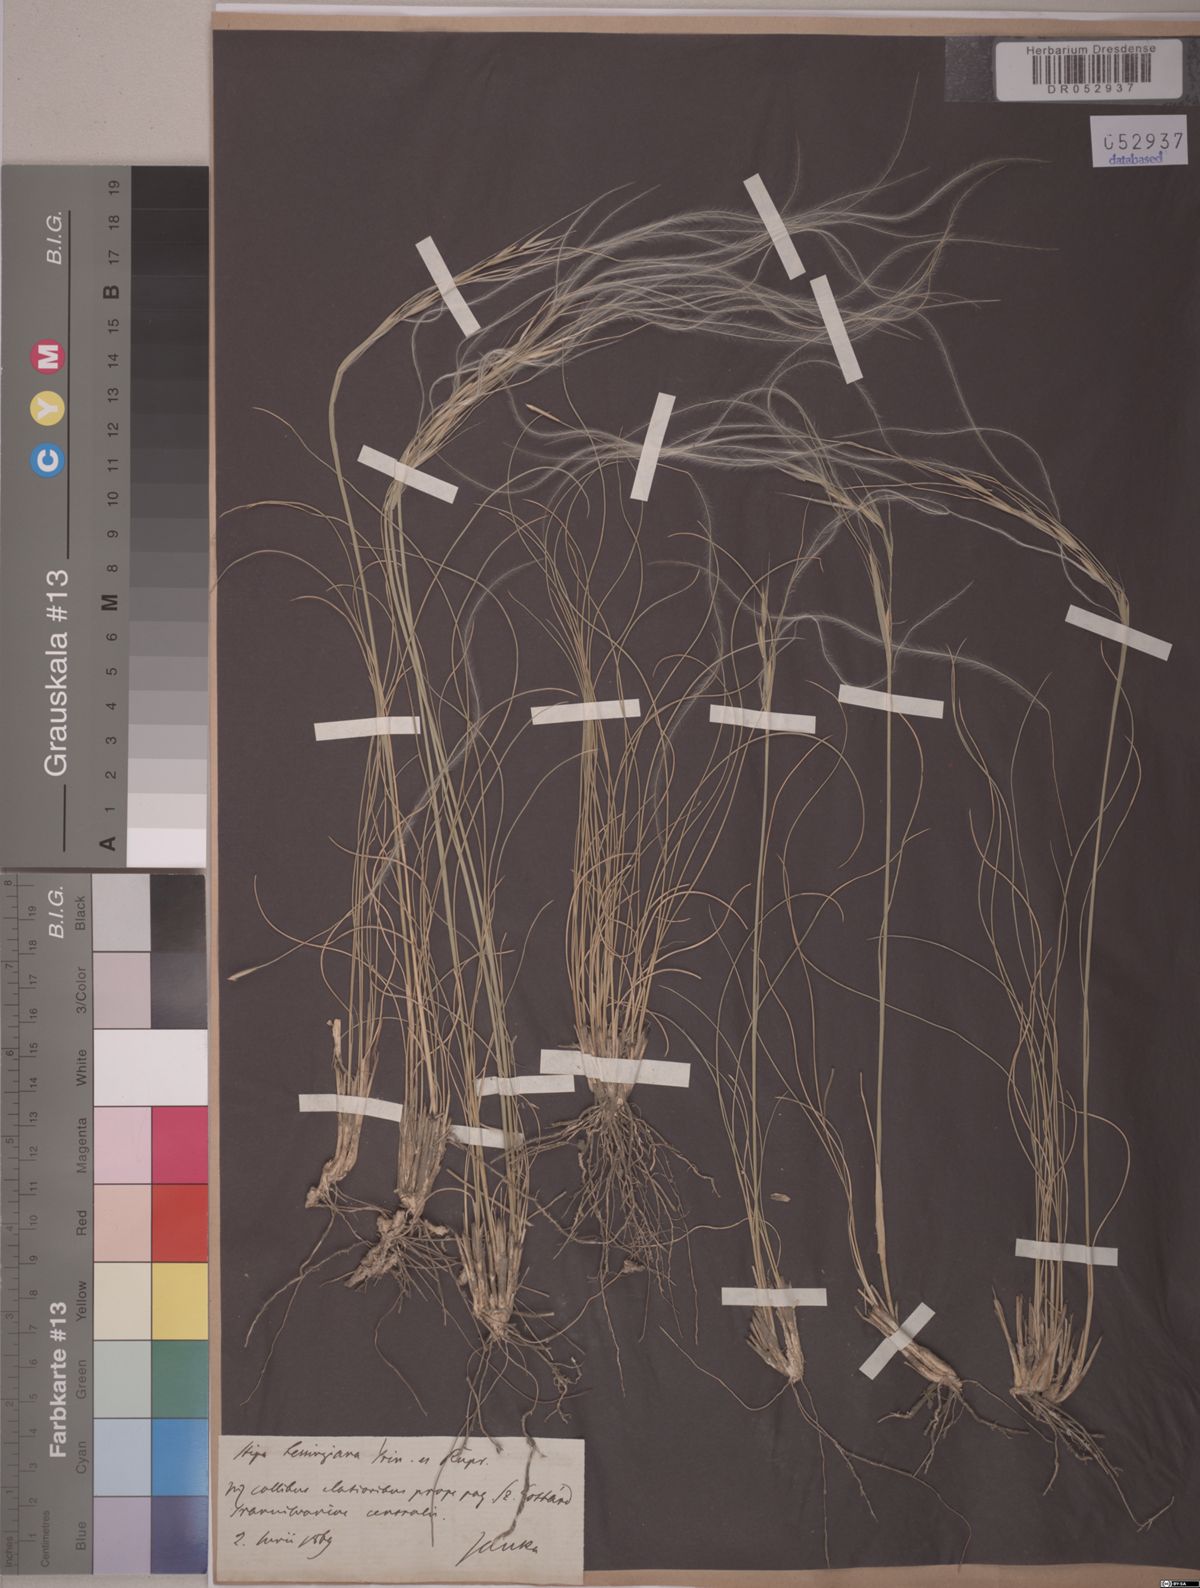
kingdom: Plantae
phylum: Tracheophyta
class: Liliopsida
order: Poales
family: Poaceae
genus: Stipa
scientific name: Stipa lessingiana
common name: Needle grass
